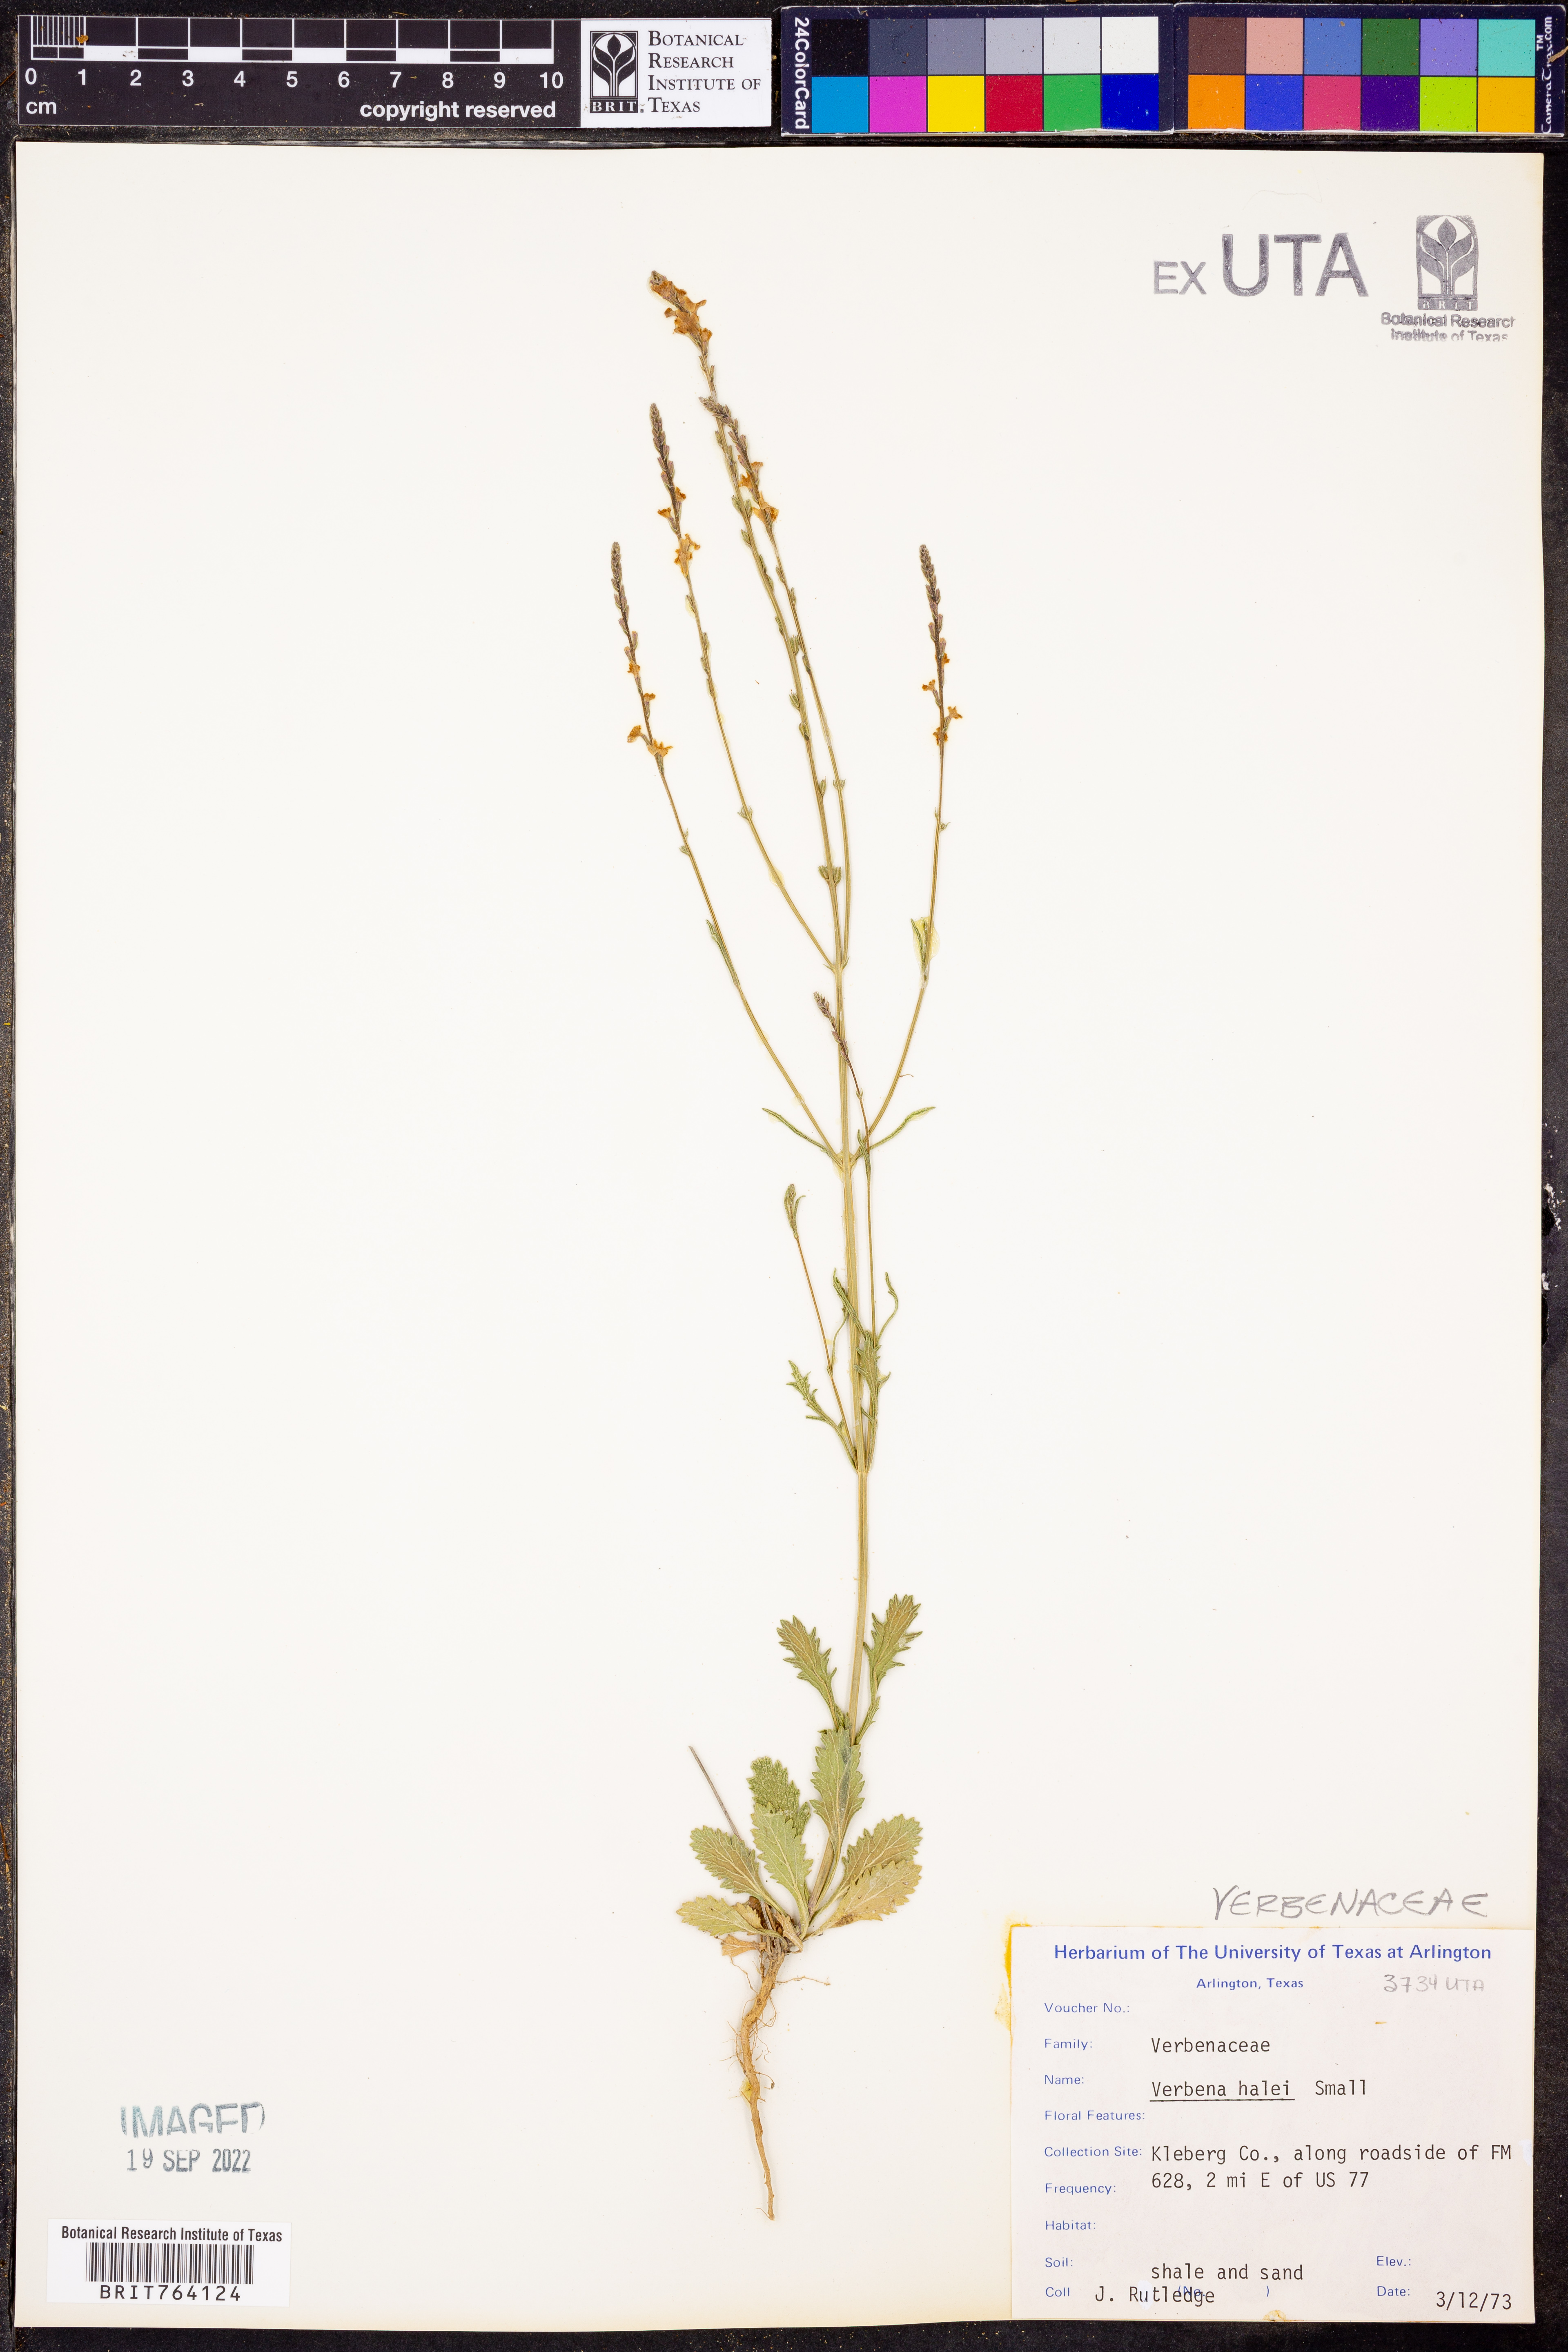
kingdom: Plantae
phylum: Tracheophyta
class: Magnoliopsida
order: Lamiales
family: Verbenaceae
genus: Verbena
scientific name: Verbena halei
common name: Texas vervain
